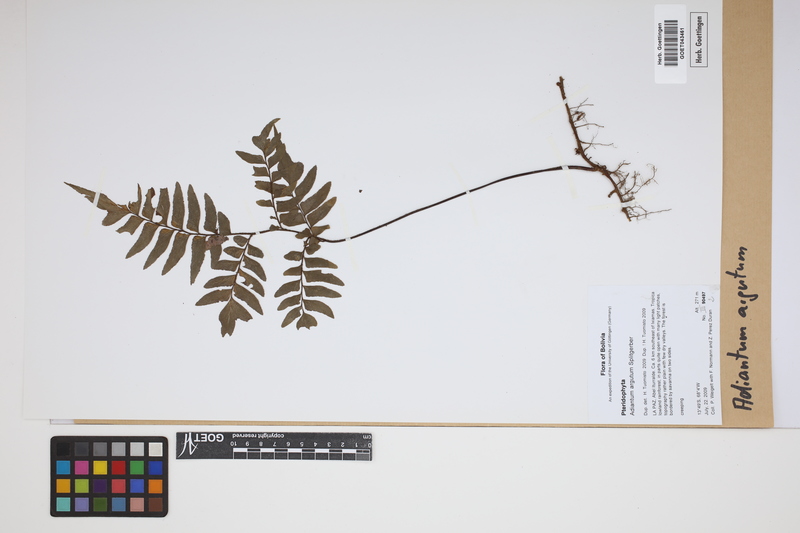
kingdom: Plantae
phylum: Tracheophyta
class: Polypodiopsida
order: Polypodiales
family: Pteridaceae
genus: Adiantum
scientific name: Adiantum argutum
